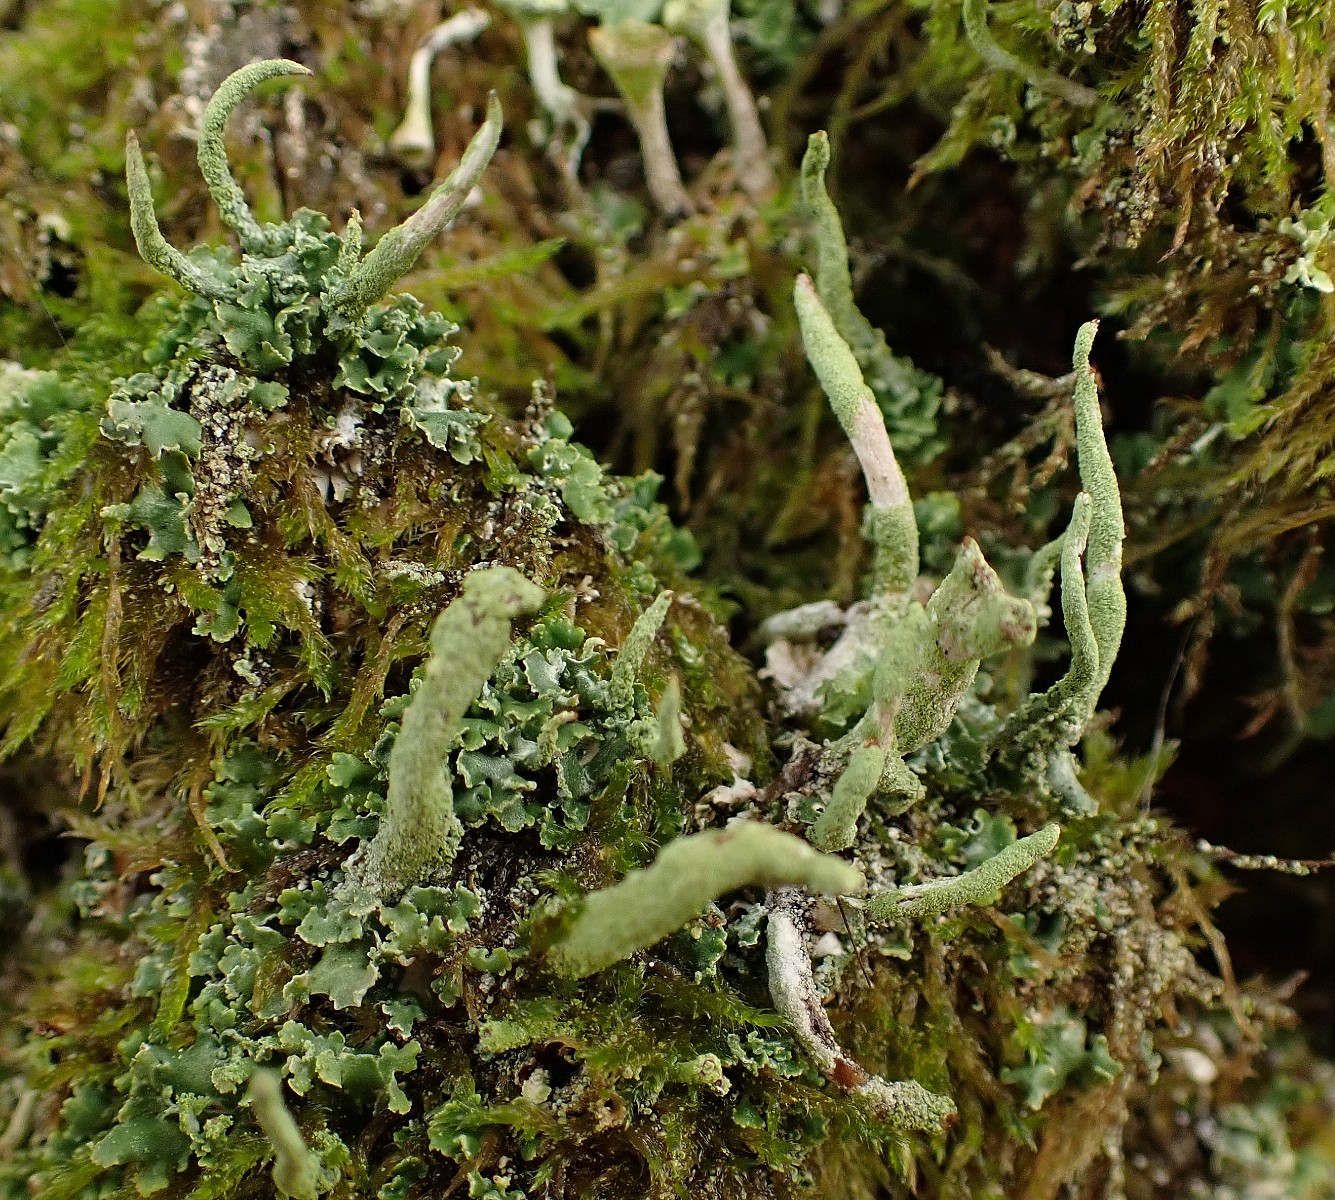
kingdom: Fungi
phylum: Ascomycota
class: Lecanoromycetes
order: Lecanorales
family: Cladoniaceae
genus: Cladonia
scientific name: Cladonia coniocraea
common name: træfods-bægerlav
